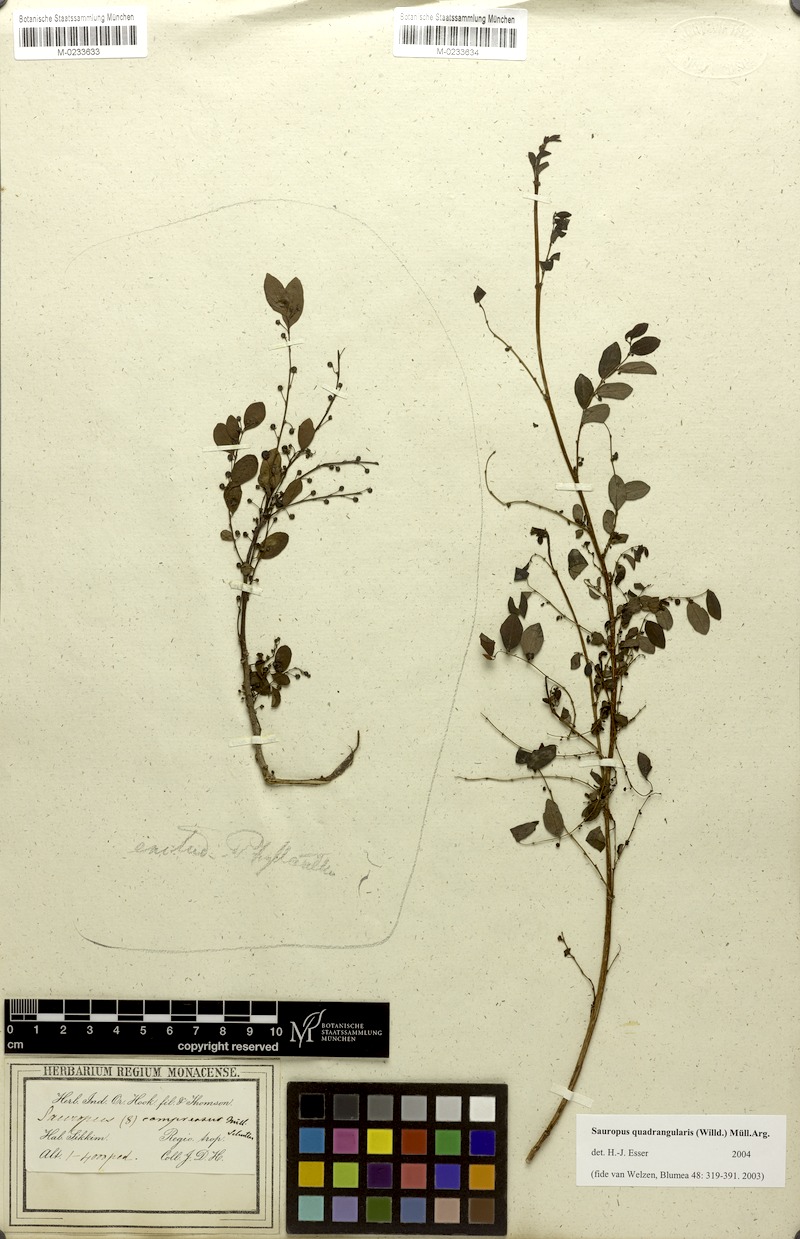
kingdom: Plantae
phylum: Tracheophyta
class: Magnoliopsida
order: Malpighiales
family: Phyllanthaceae
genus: Phyllanthus
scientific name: Phyllanthus
